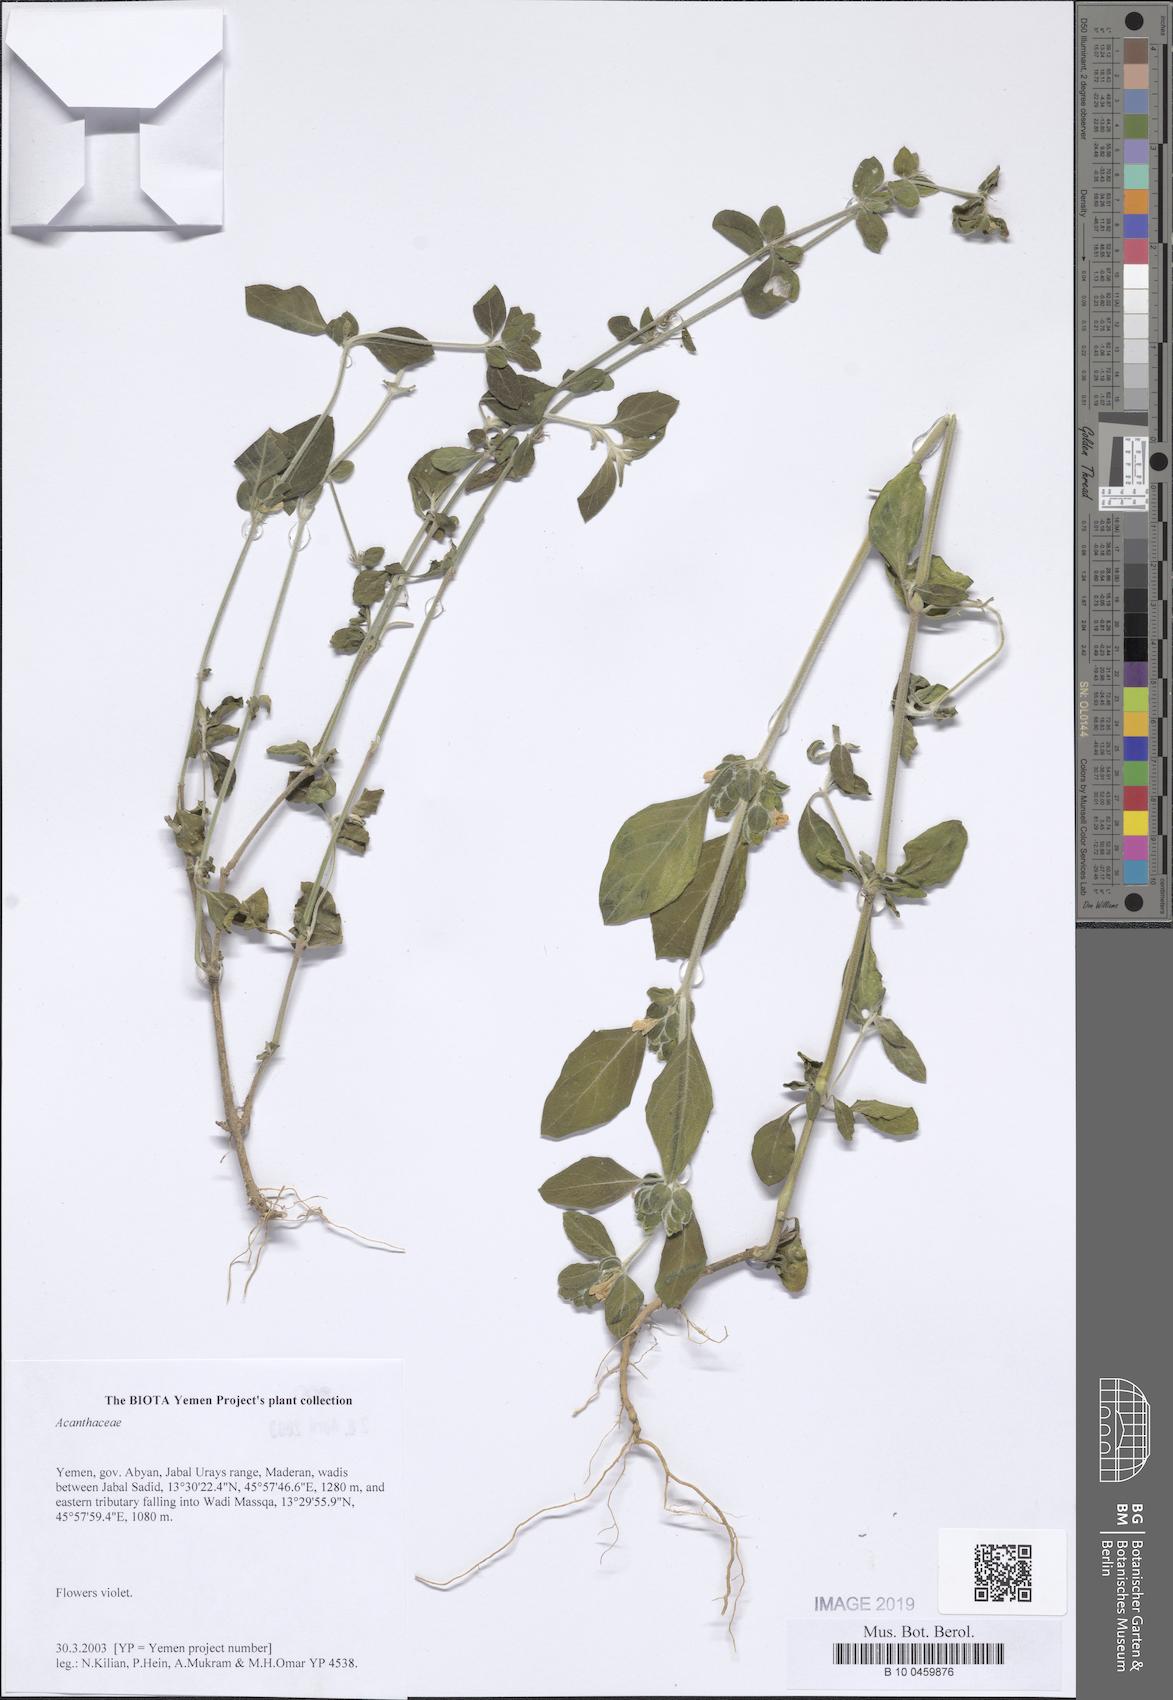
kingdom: Plantae
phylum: Tracheophyta
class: Magnoliopsida
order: Lamiales
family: Acanthaceae
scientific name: Acanthaceae
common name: Acanthaceae
